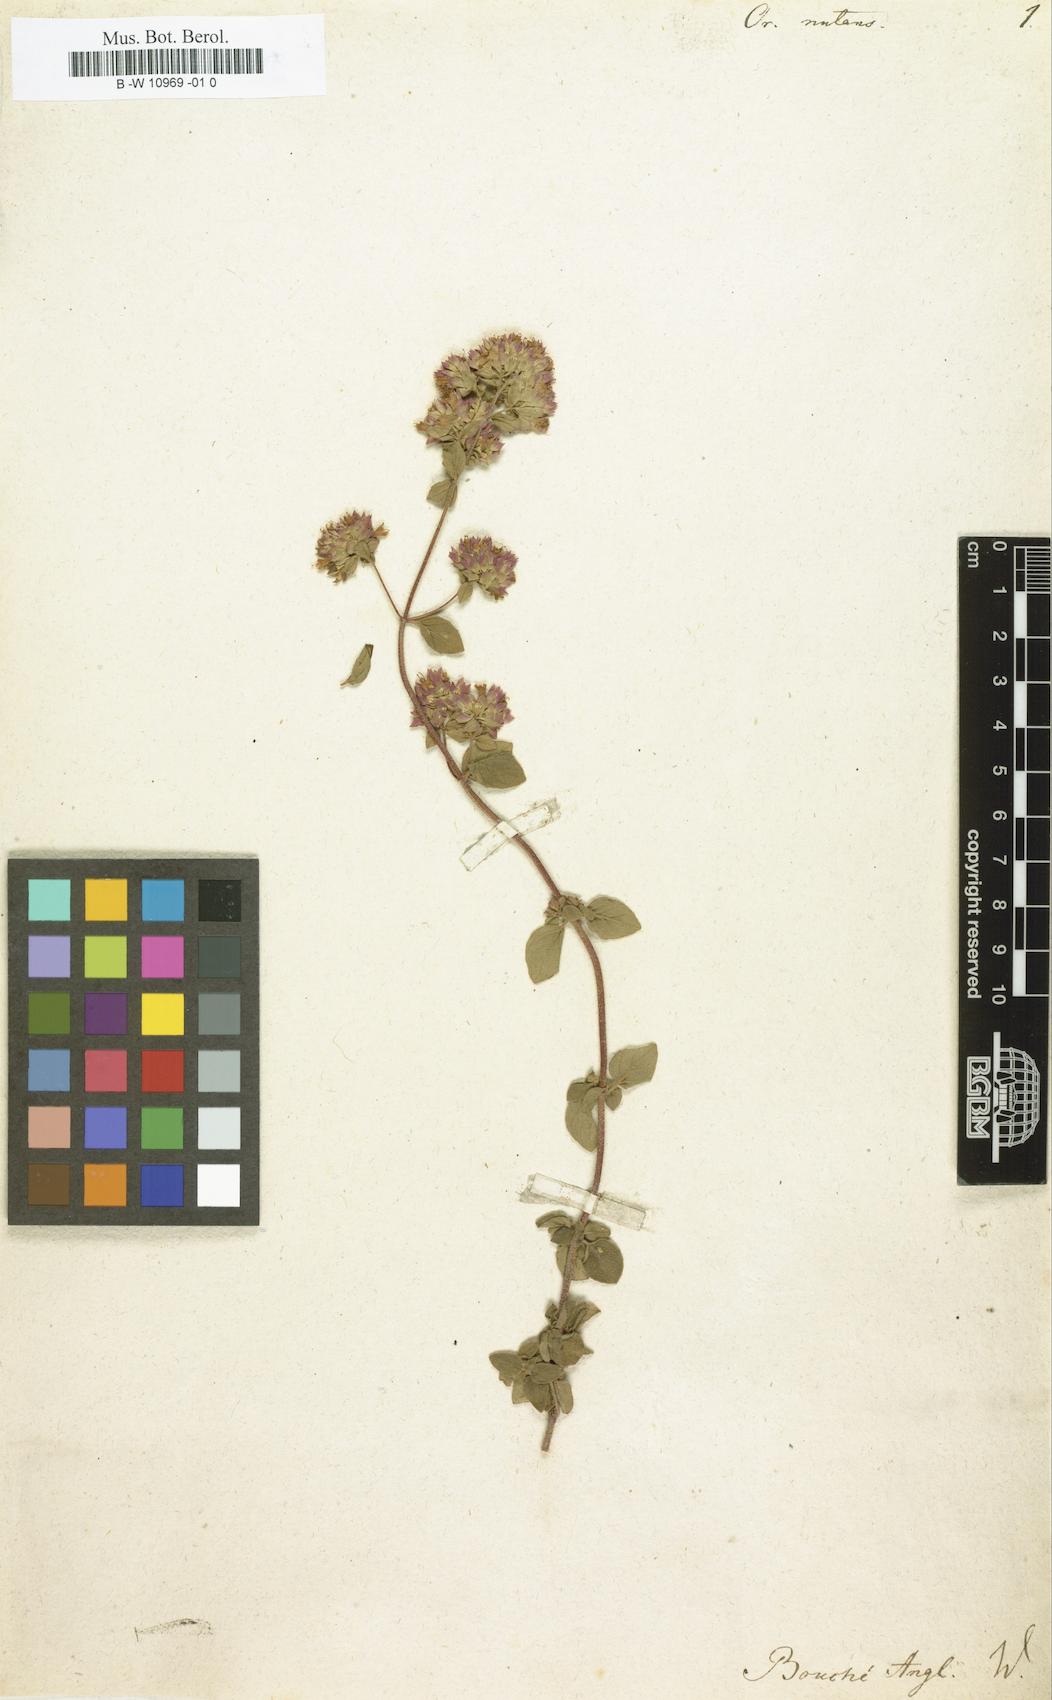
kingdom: Plantae
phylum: Tracheophyta
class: Magnoliopsida
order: Lamiales
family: Lamiaceae
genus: Origanum
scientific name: Origanum vulgare
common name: Wild marjoram
